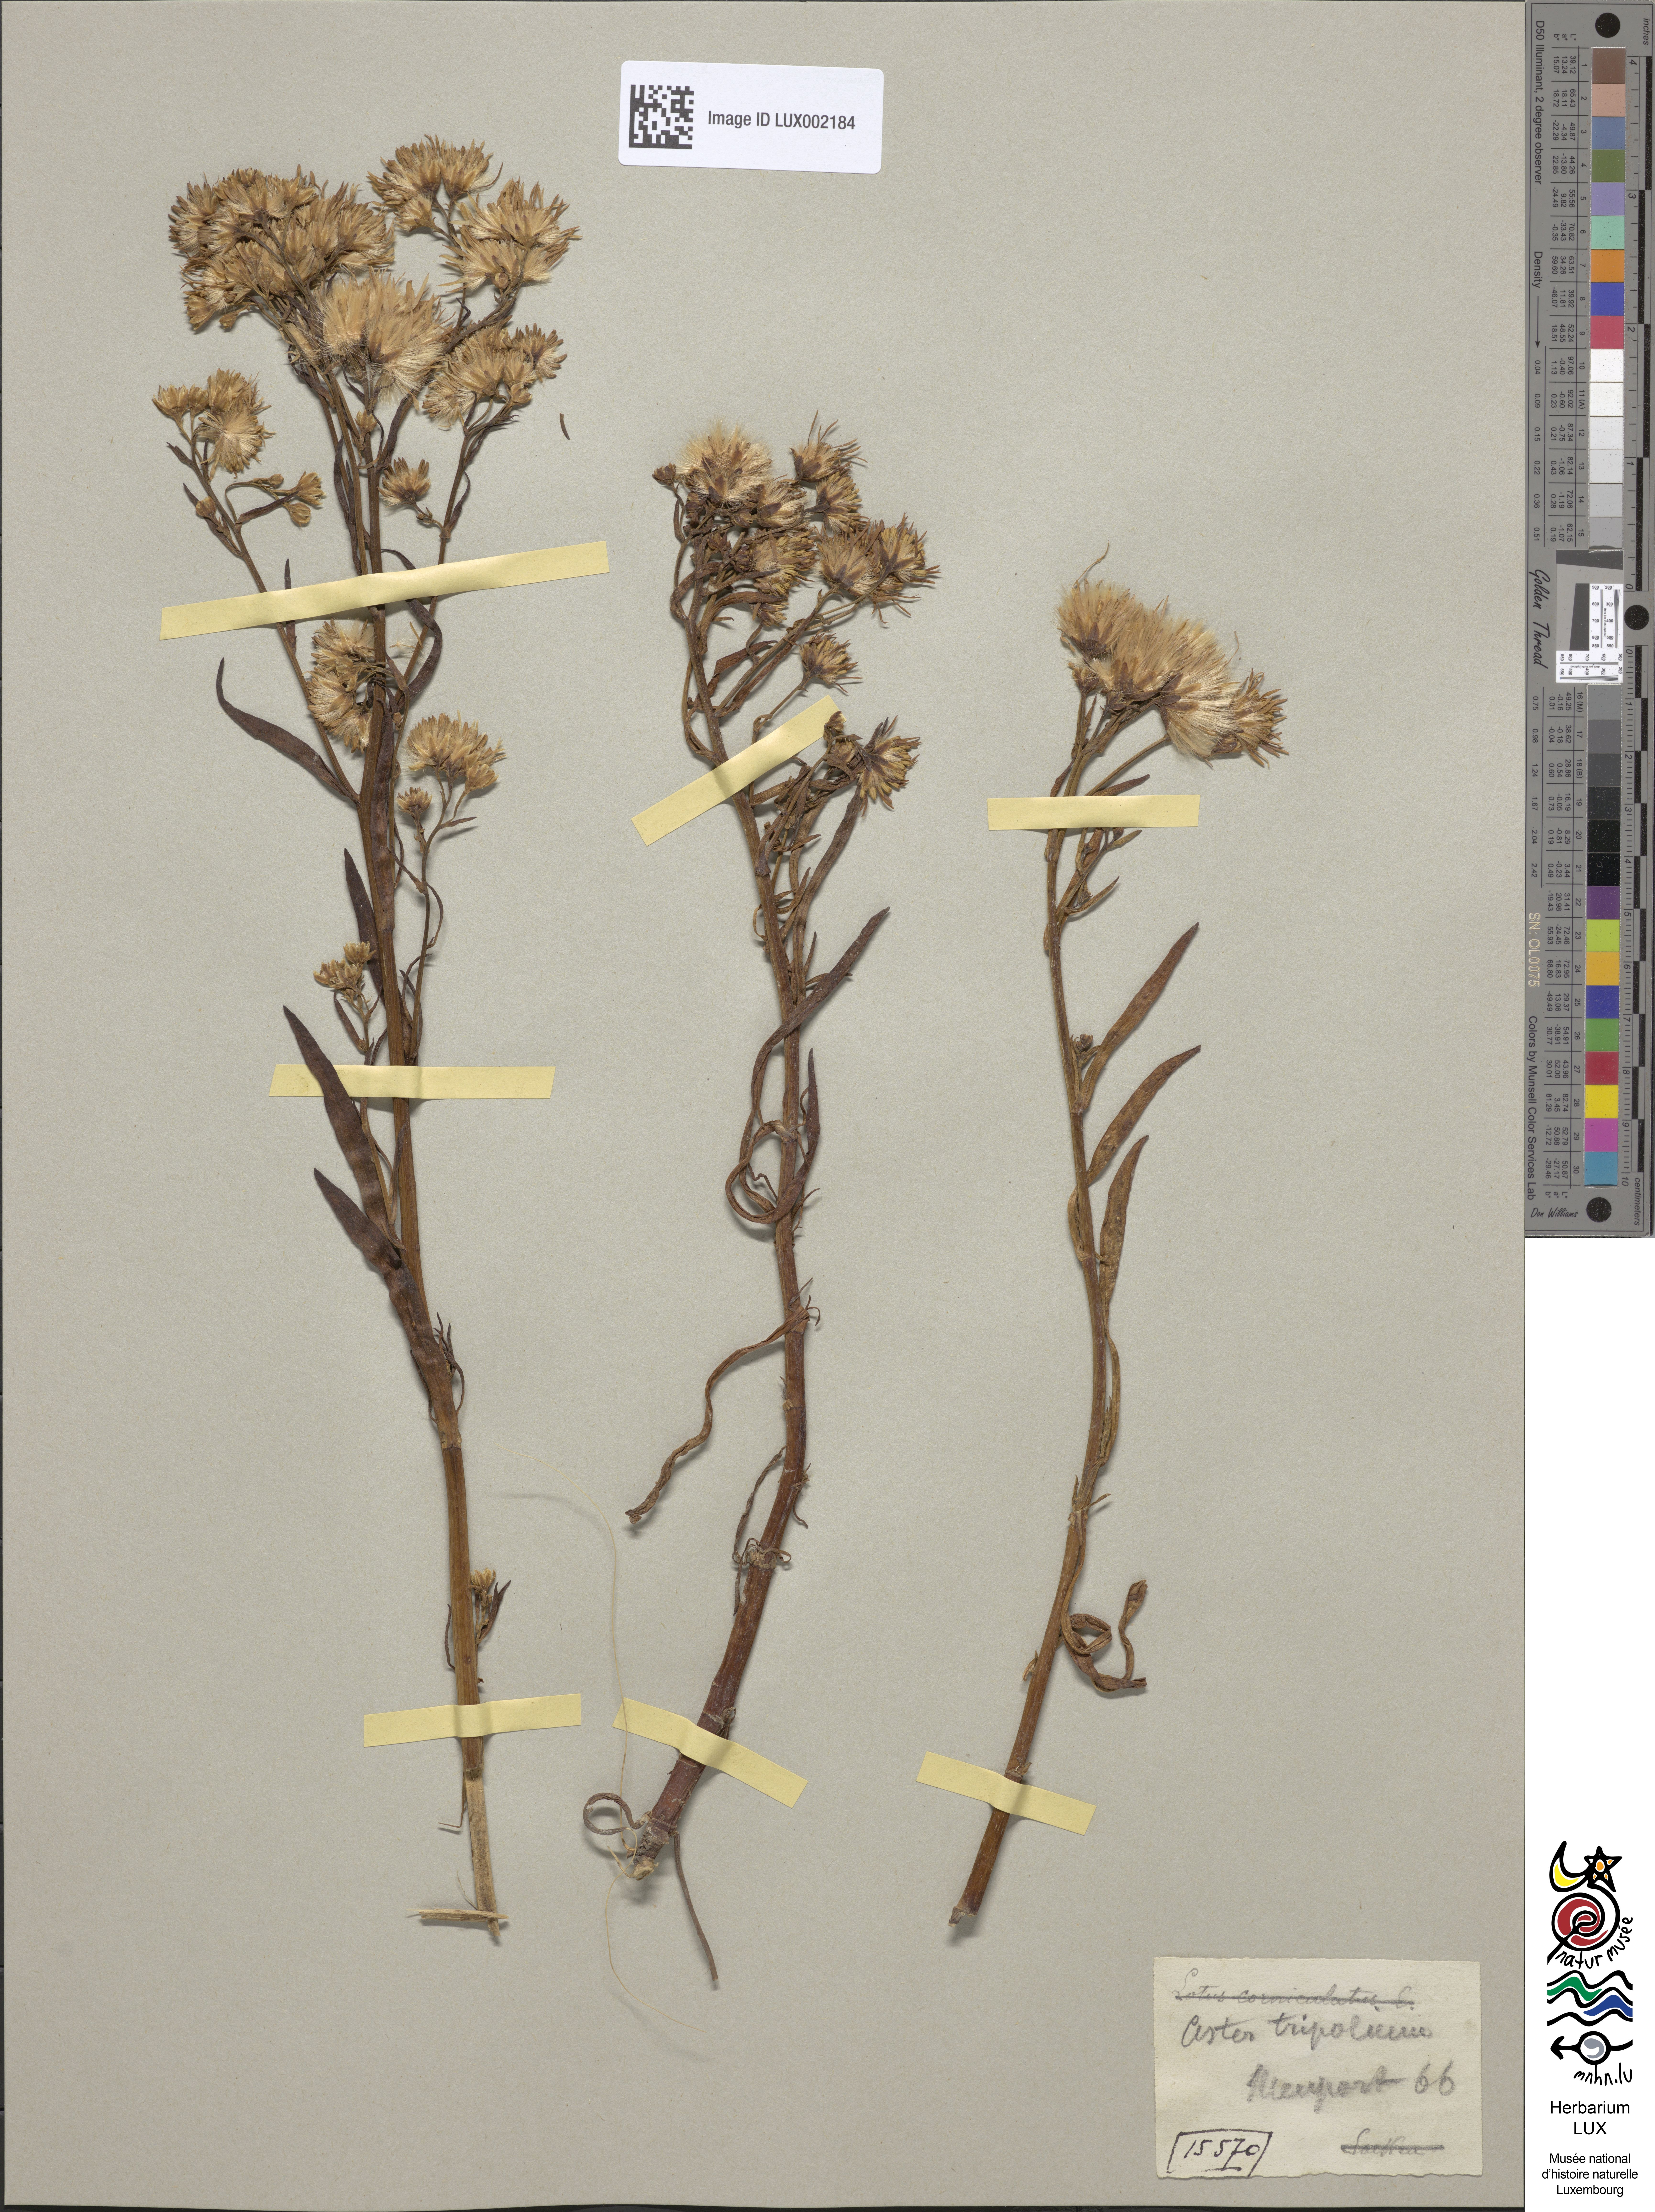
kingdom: Plantae
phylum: Tracheophyta
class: Magnoliopsida
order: Asterales
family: Asteraceae
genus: Tripolium
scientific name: Tripolium pannonicum
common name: Sea aster
